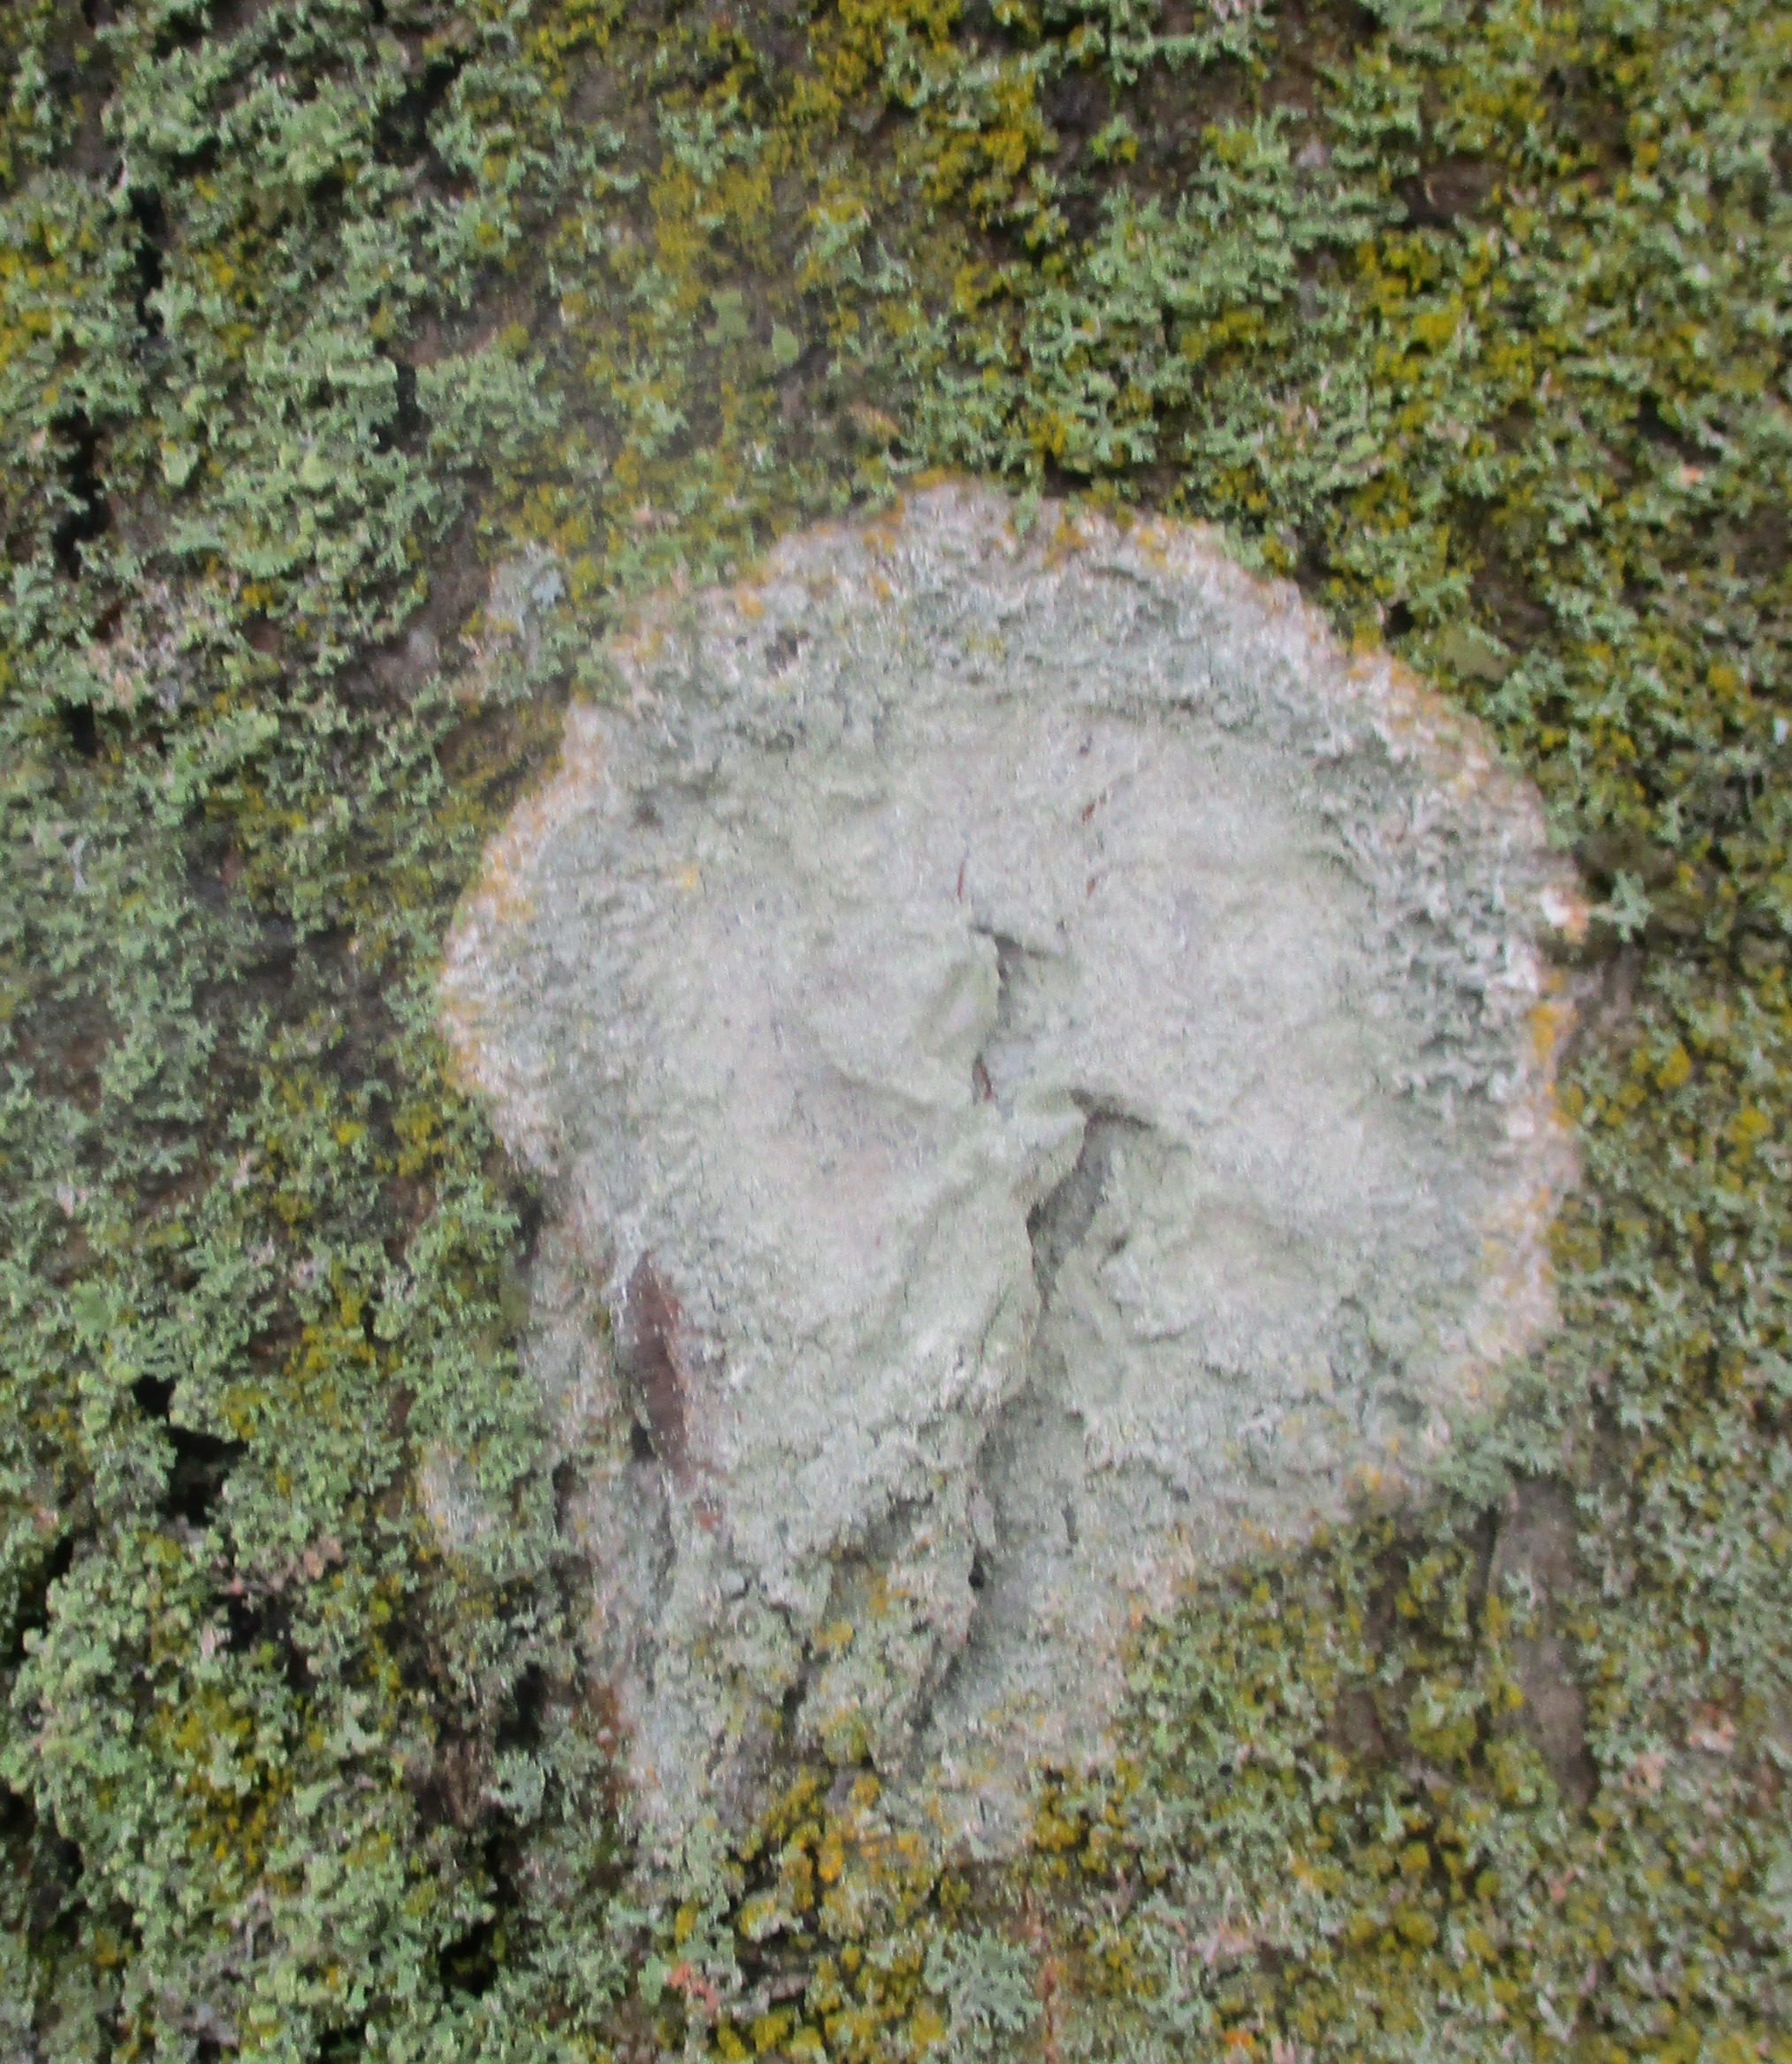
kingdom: Fungi
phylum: Ascomycota
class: Lecanoromycetes
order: Ostropales
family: Phlyctidaceae
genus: Phlyctis
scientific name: Phlyctis argena
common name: Almindelig sølvlav
